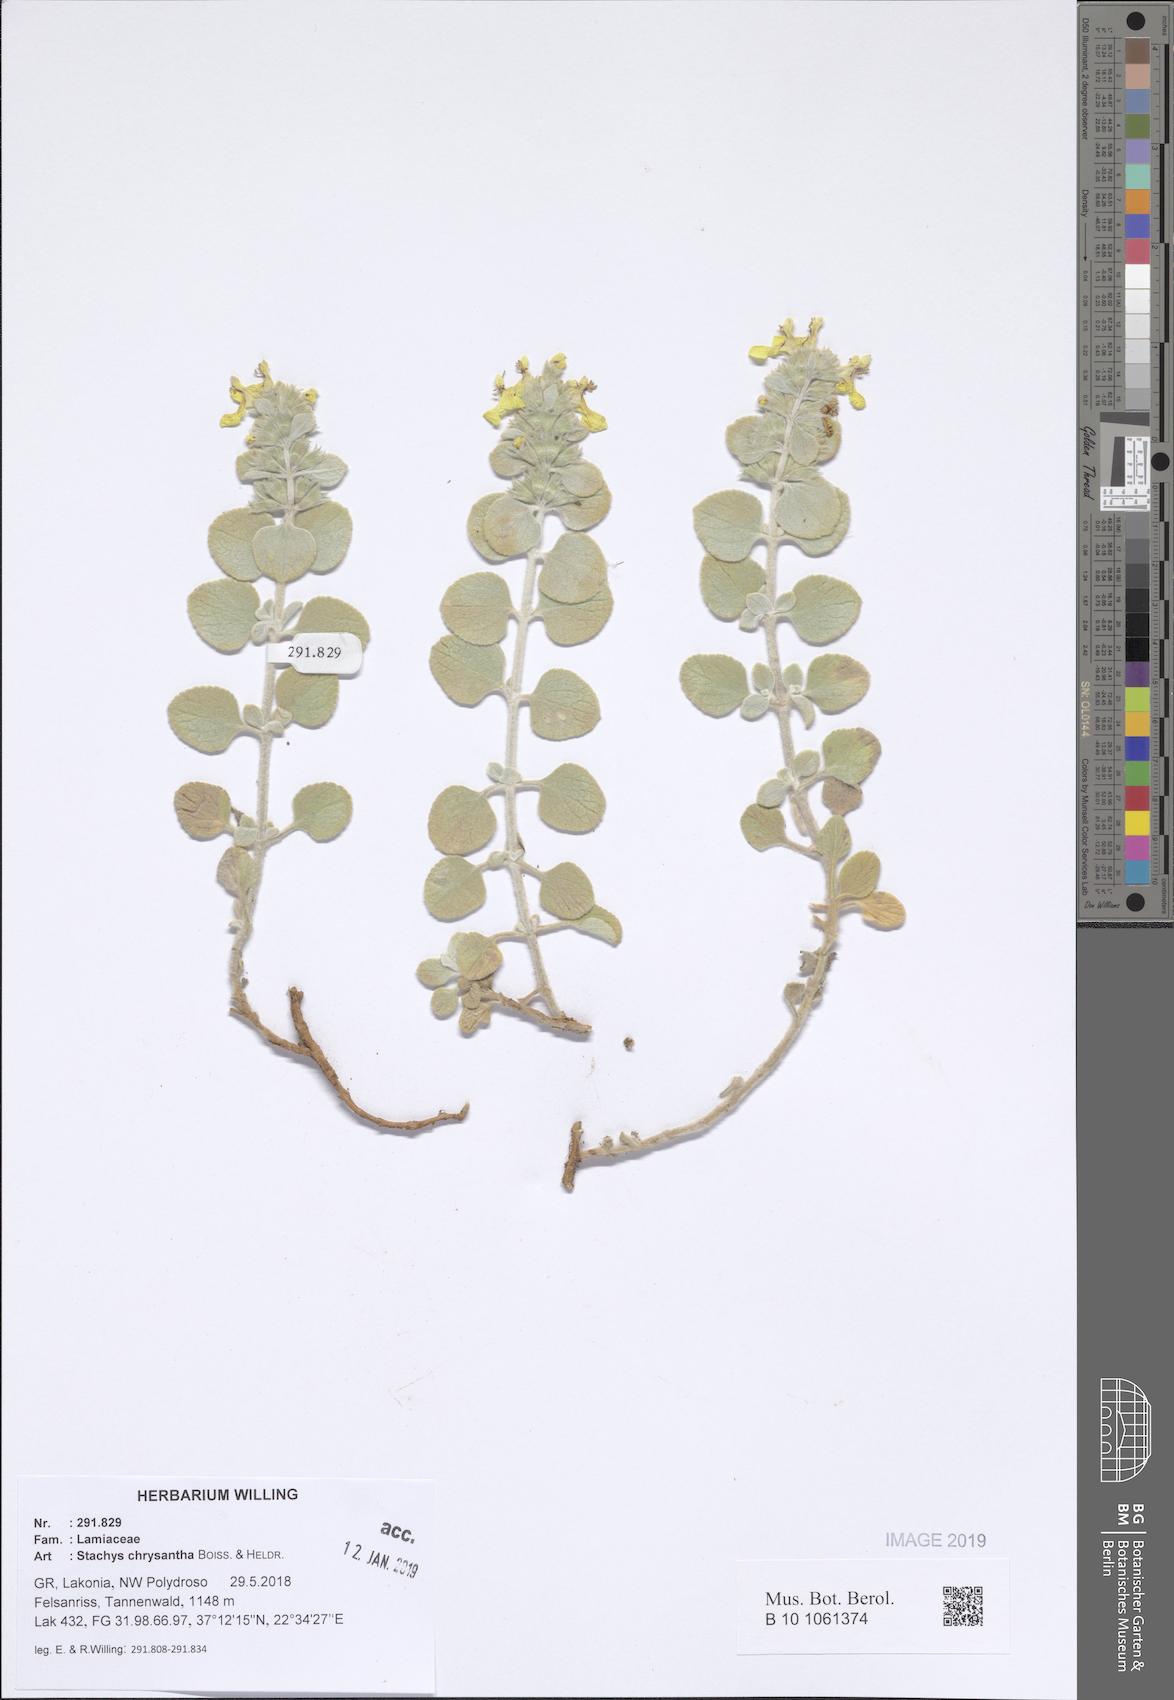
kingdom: Plantae
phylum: Tracheophyta
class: Magnoliopsida
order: Lamiales
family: Lamiaceae
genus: Stachys
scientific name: Stachys chrysantha
